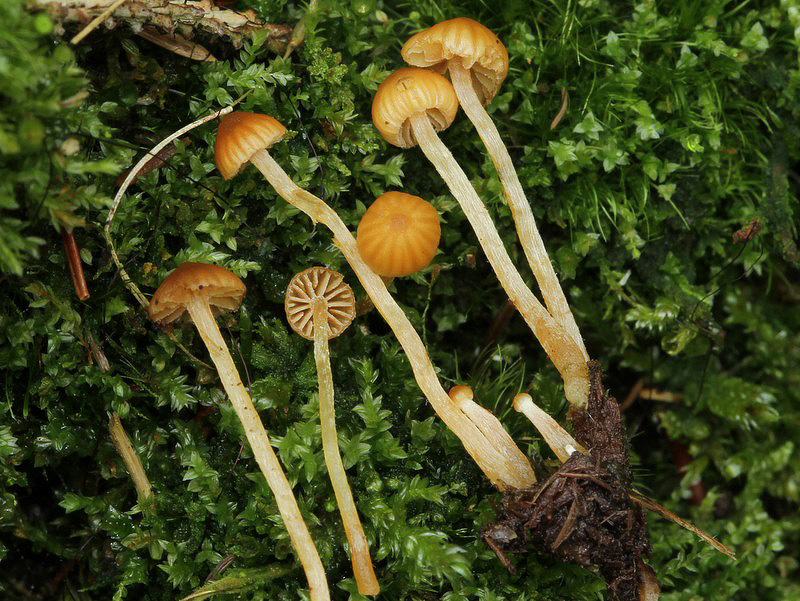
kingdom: Fungi
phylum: Basidiomycota
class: Agaricomycetes
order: Agaricales
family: Hymenogastraceae
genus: Galerina
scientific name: Galerina calyptrata
